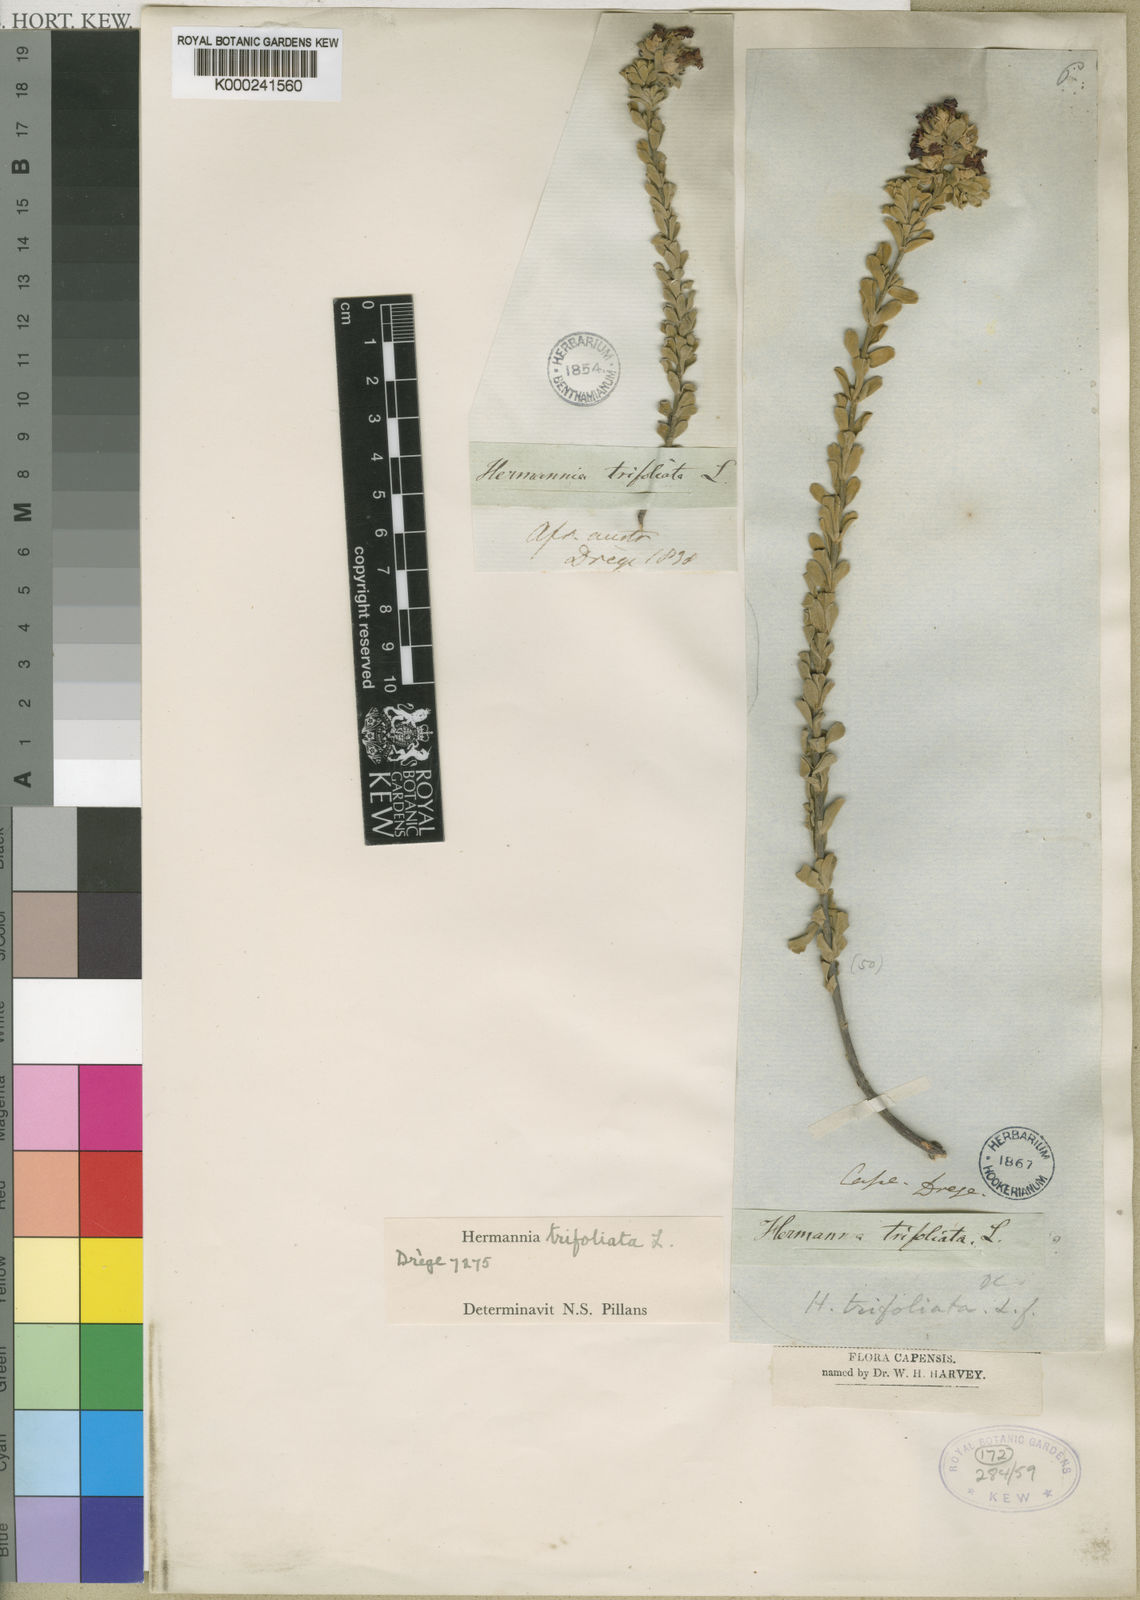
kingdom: Plantae
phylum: Tracheophyta
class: Magnoliopsida
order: Malvales
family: Malvaceae
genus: Hermannia
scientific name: Hermannia trifoliata
